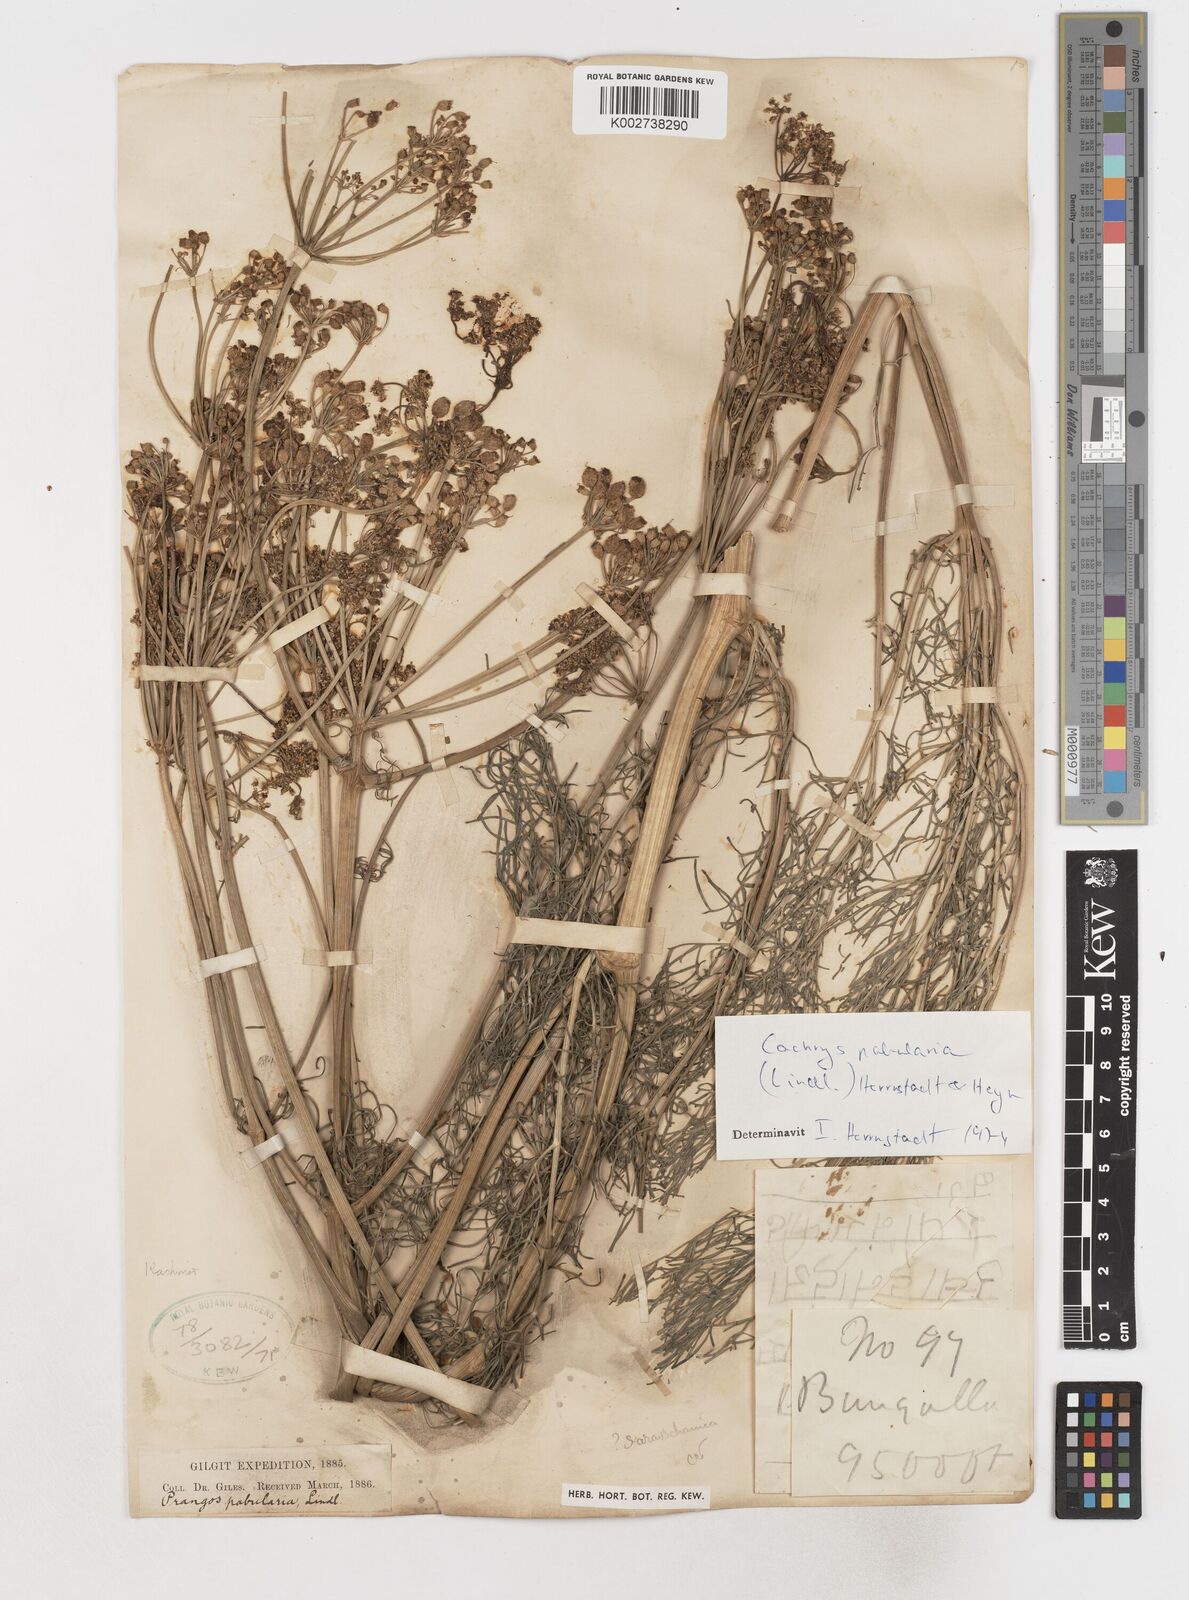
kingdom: Plantae
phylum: Tracheophyta
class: Magnoliopsida
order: Apiales
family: Apiaceae
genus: Prangos
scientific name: Prangos
